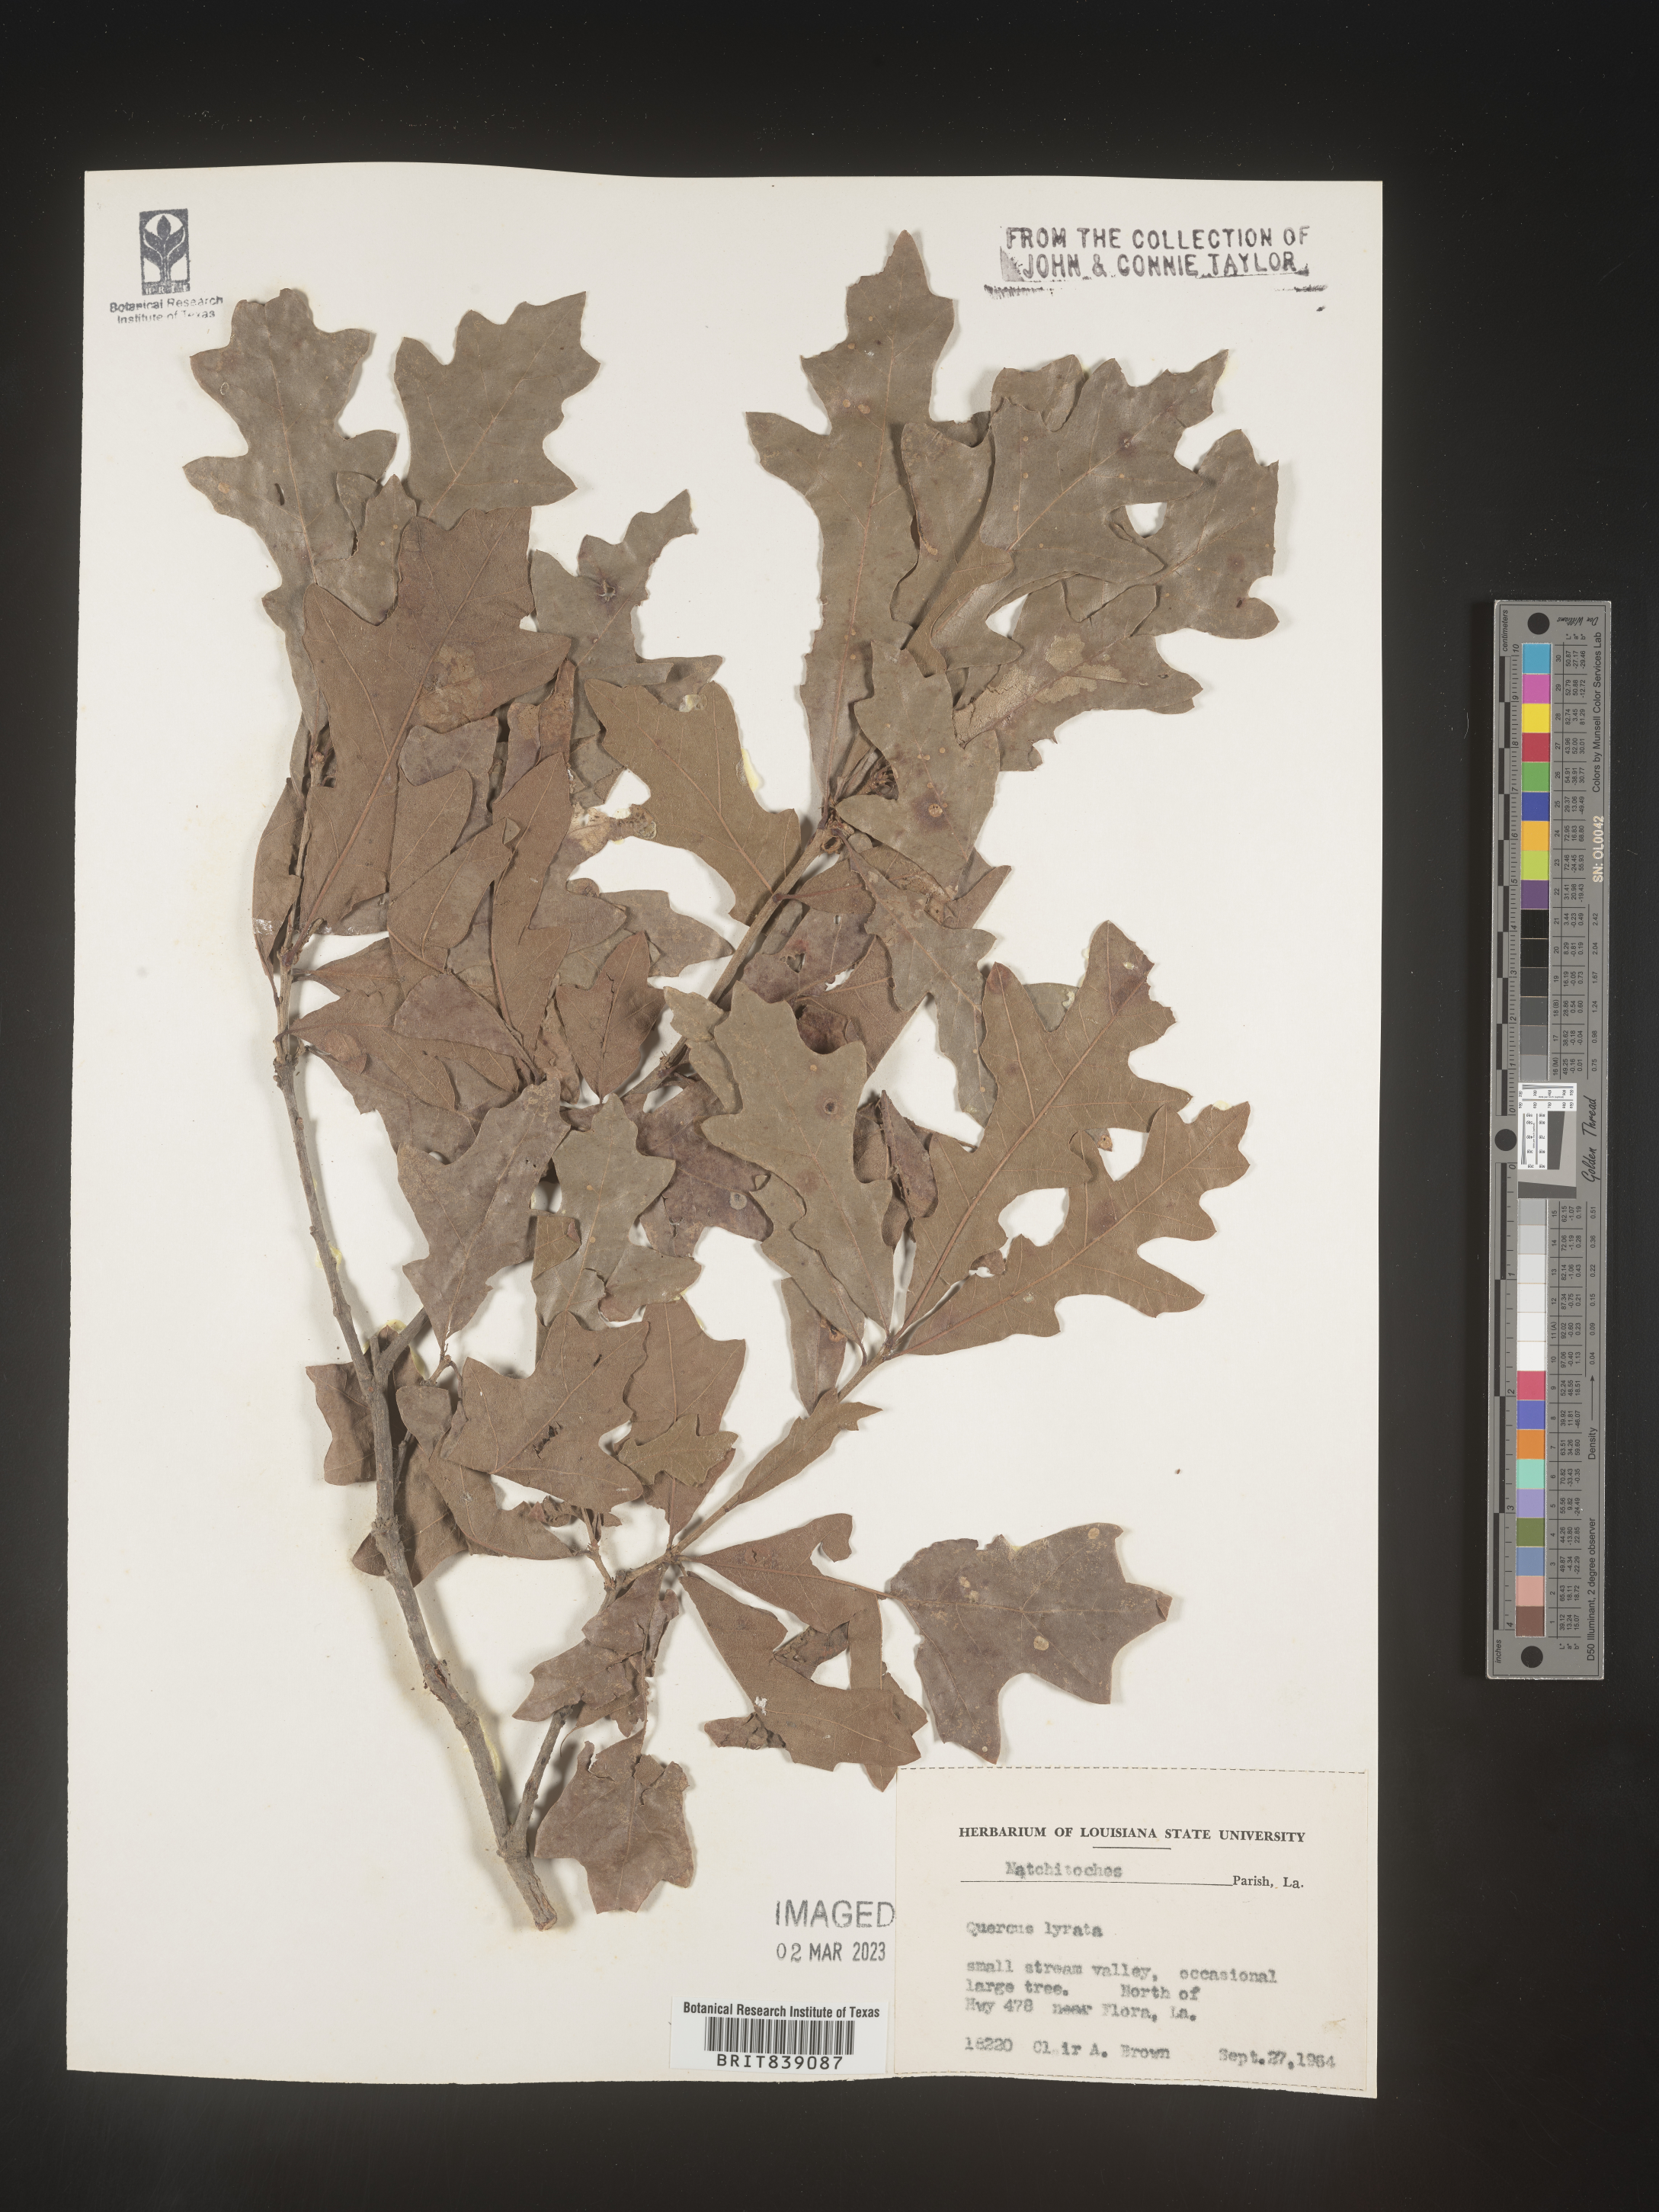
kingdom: Plantae
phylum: Tracheophyta
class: Magnoliopsida
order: Fagales
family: Fagaceae
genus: Quercus
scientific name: Quercus lyrata
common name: Overcup oak
